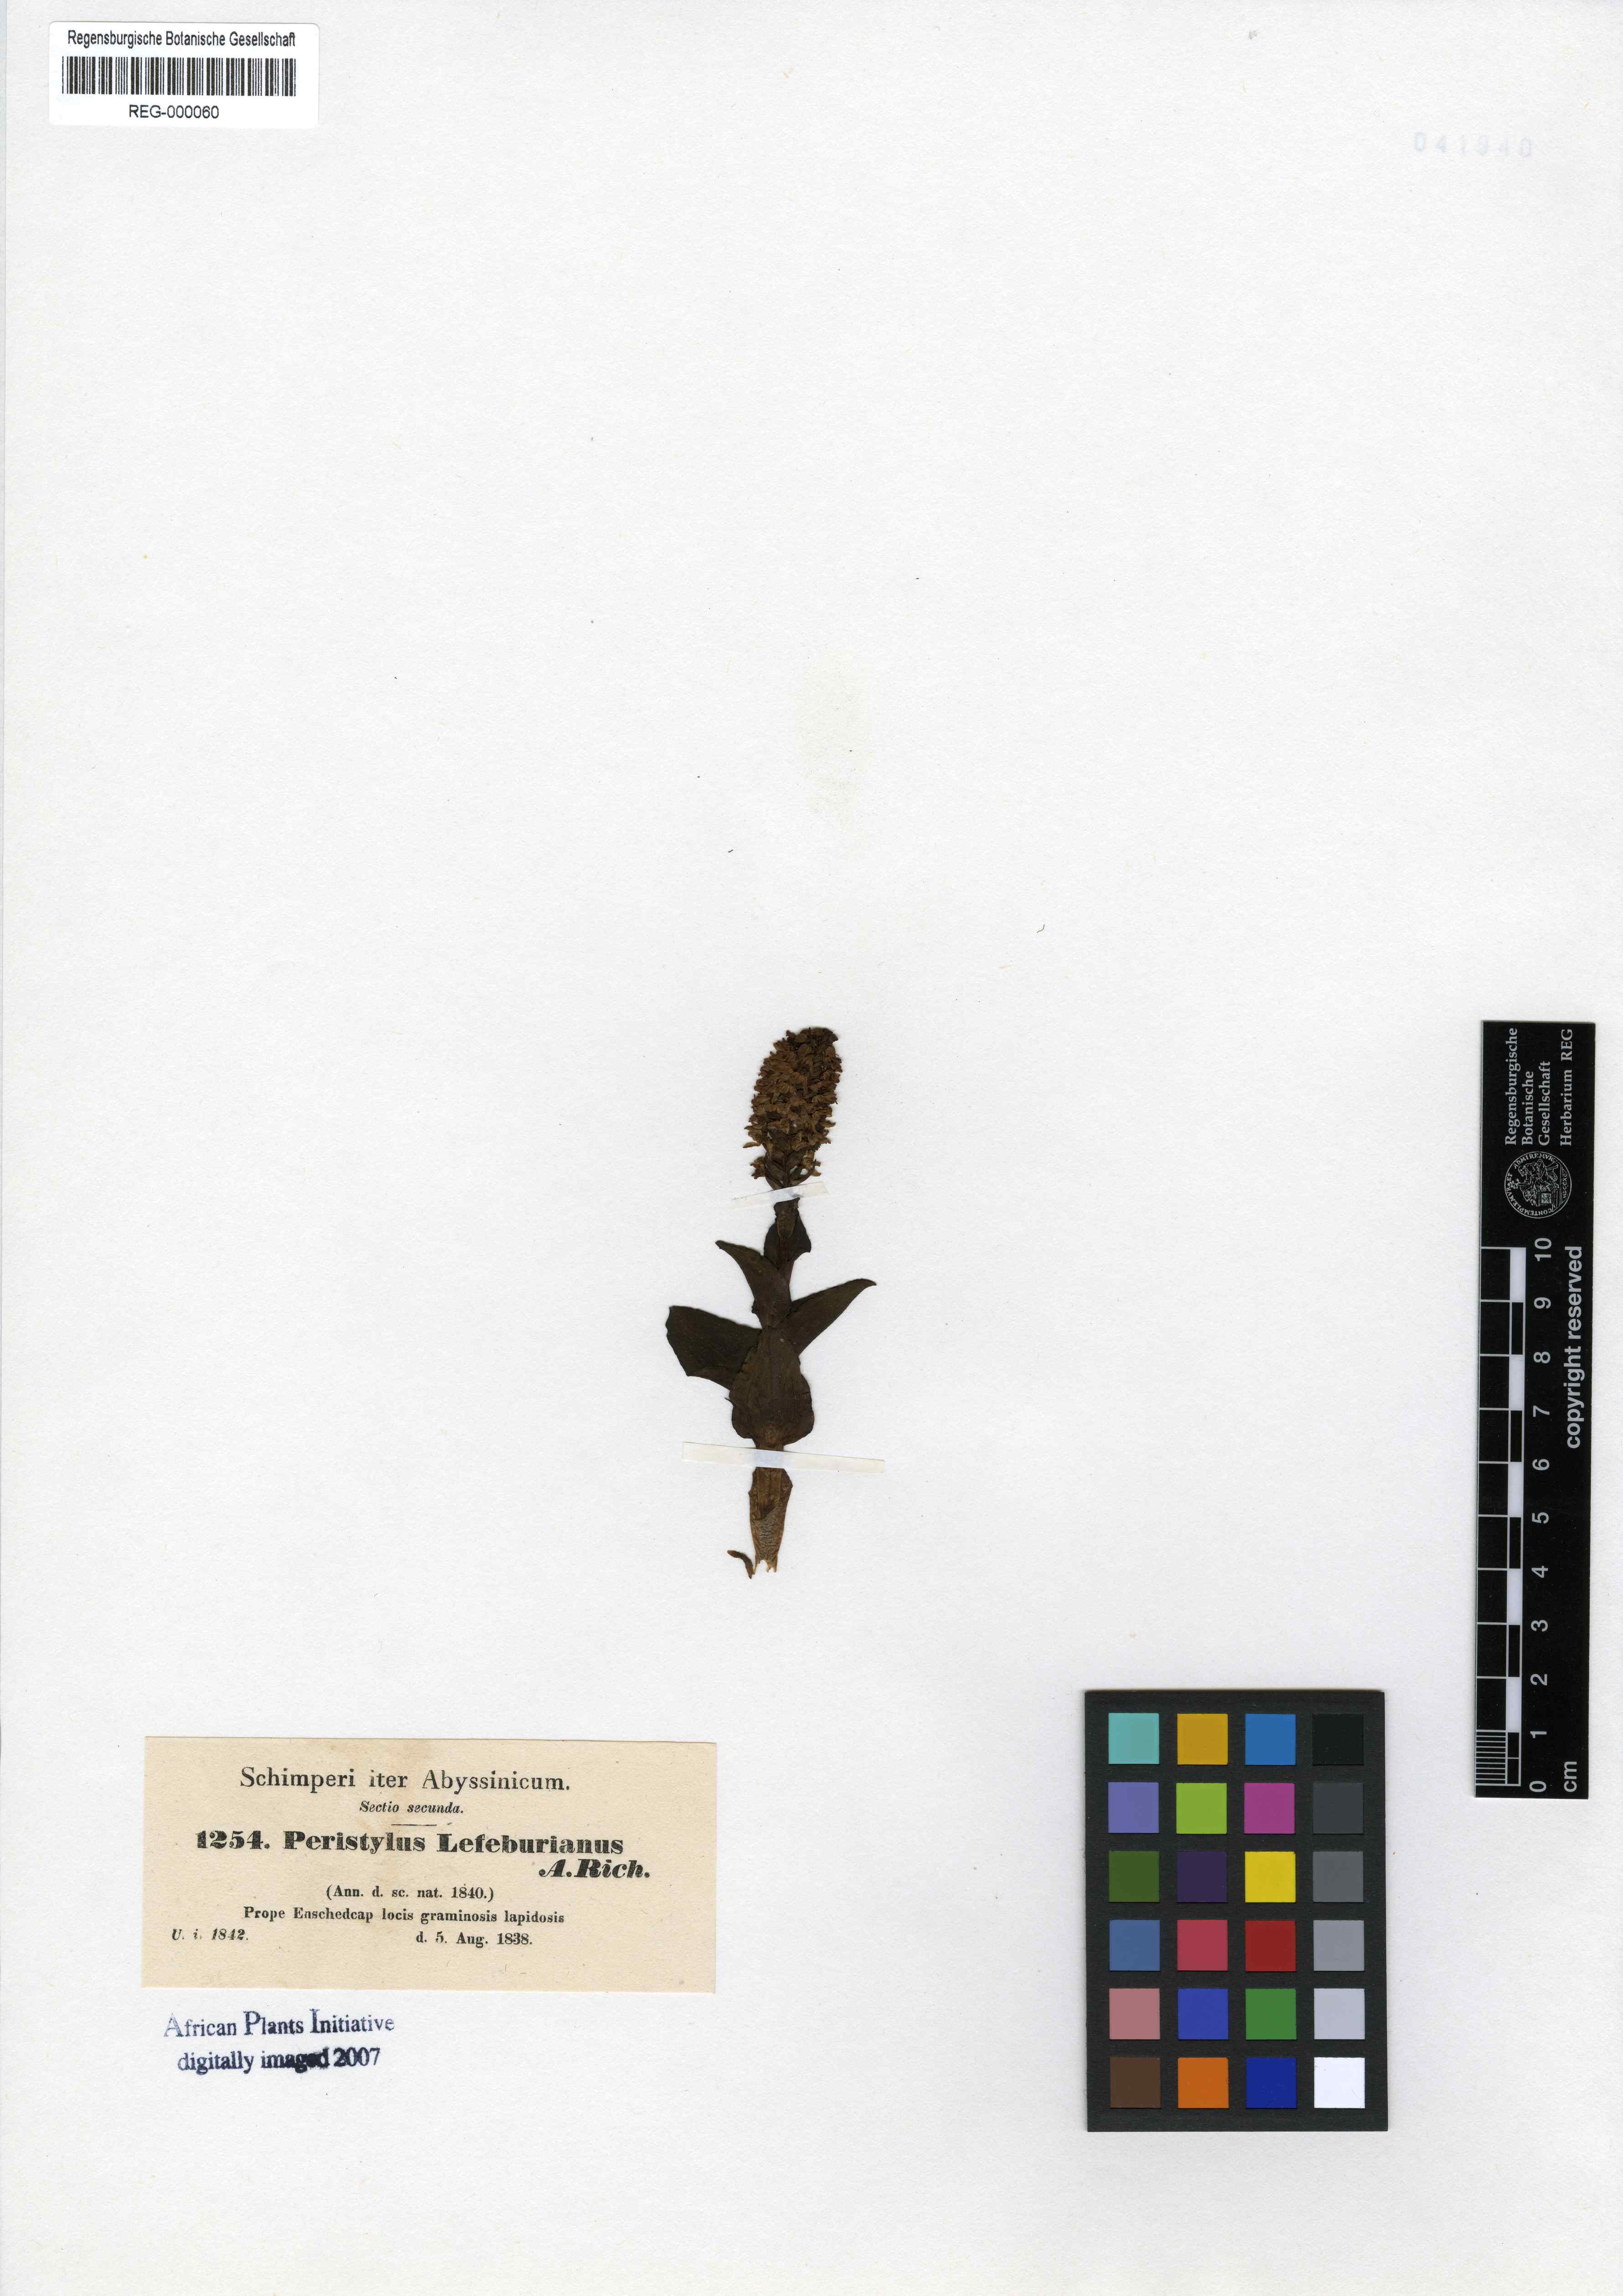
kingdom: Plantae
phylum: Tracheophyta
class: Liliopsida
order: Asparagales
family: Orchidaceae
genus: Habenaria
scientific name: Habenaria lefebureana
